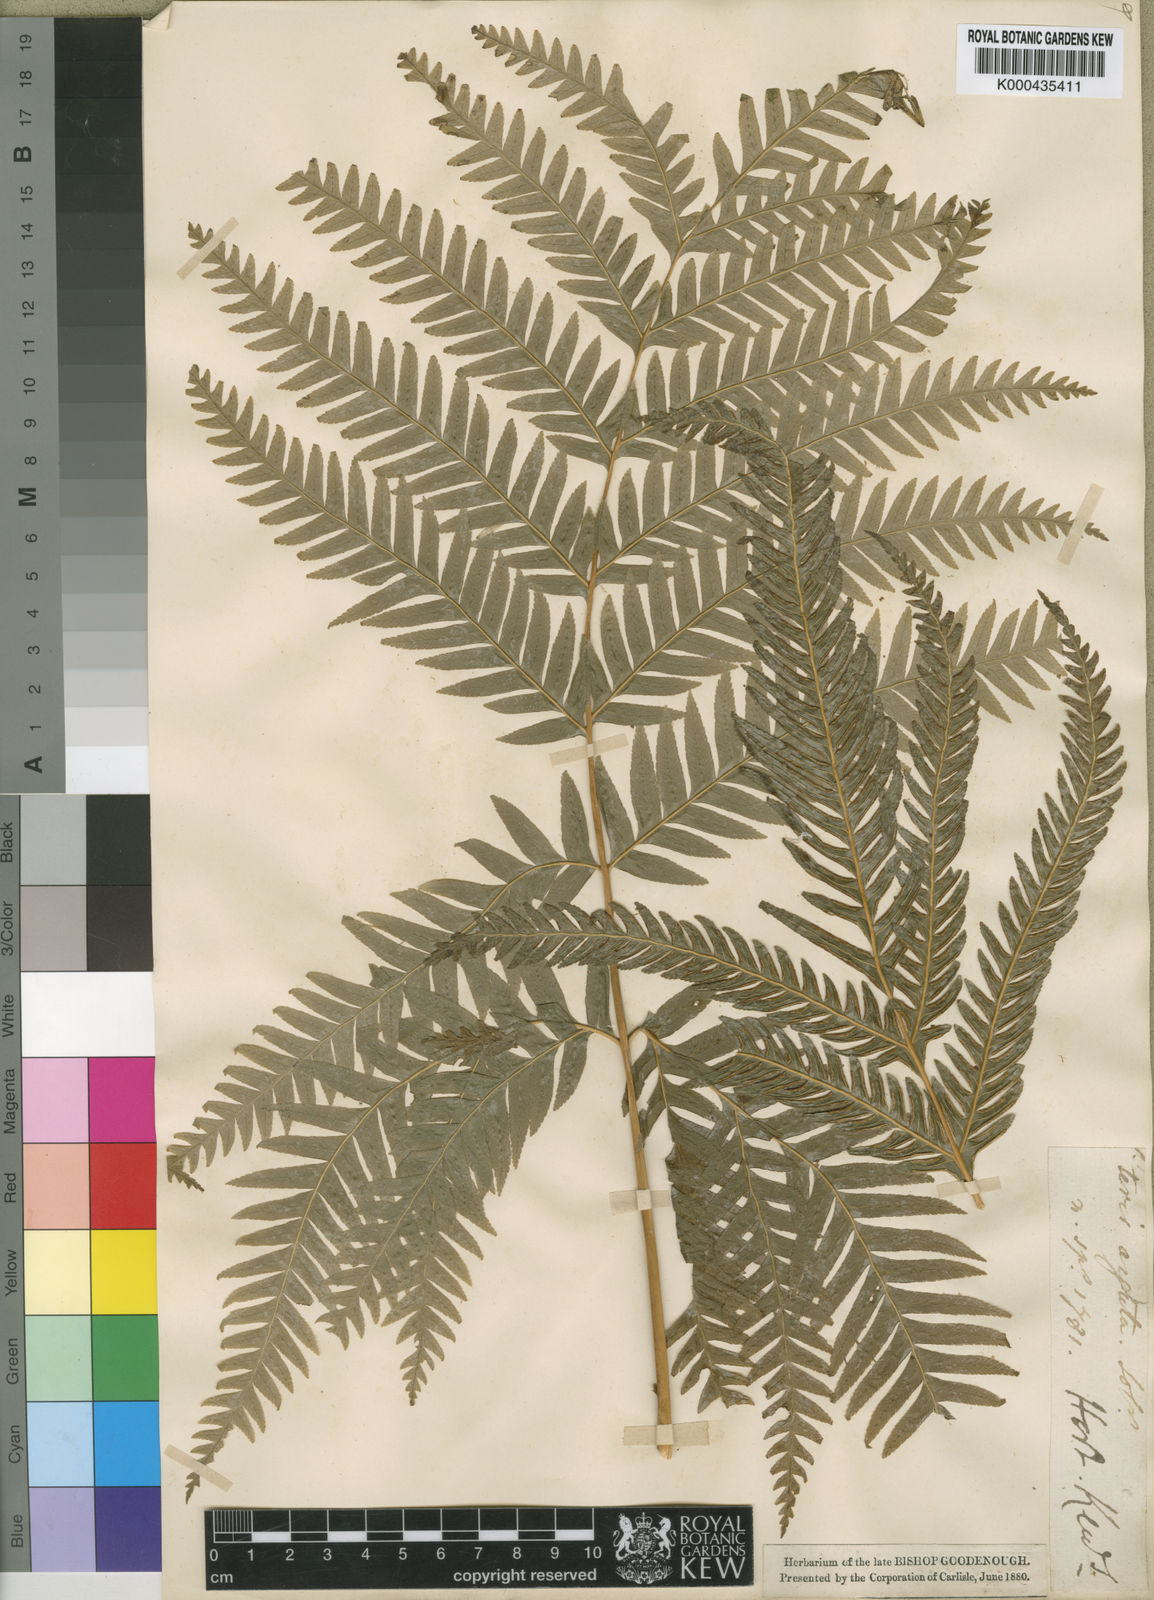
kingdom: Plantae
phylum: Tracheophyta
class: Polypodiopsida
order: Polypodiales
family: Pteridaceae
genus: Pteris
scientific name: Pteris
